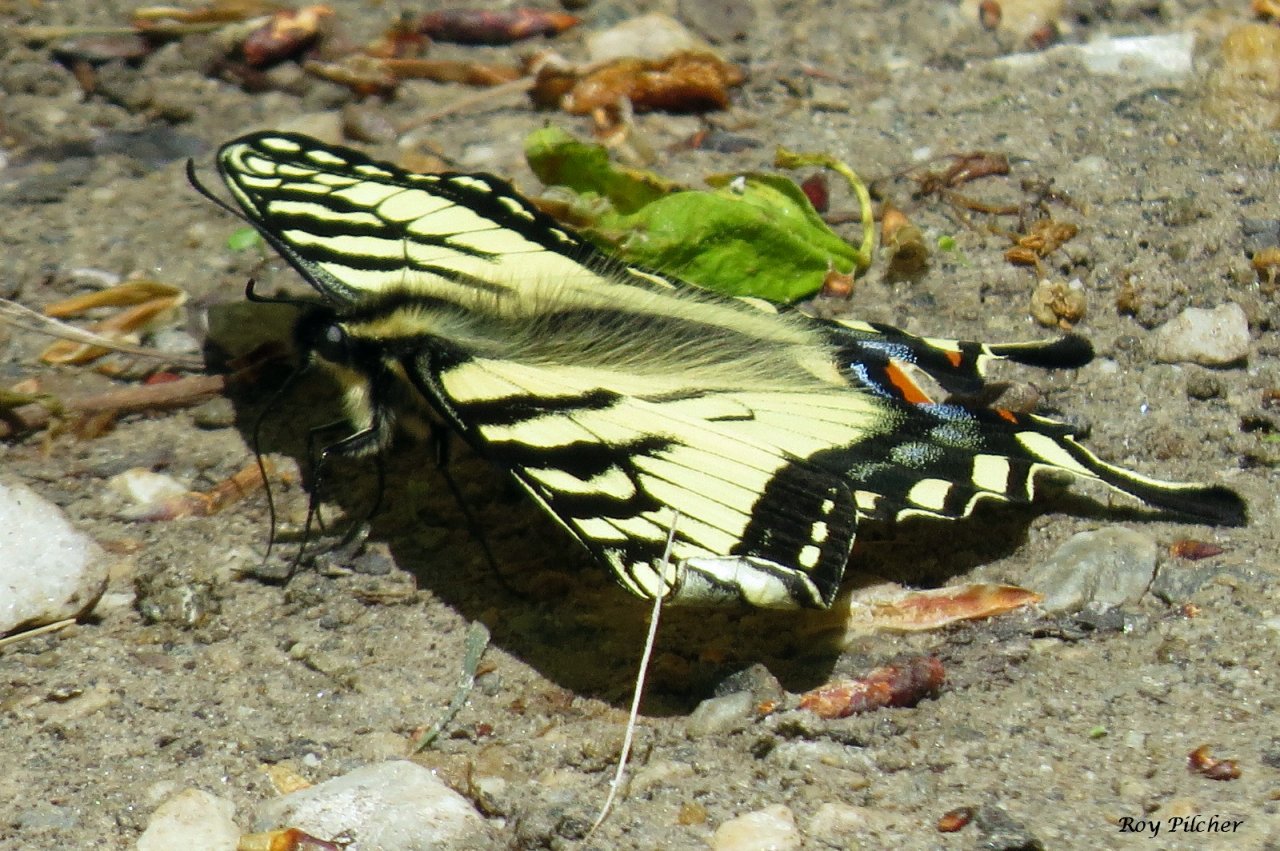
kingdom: Animalia
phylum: Arthropoda
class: Insecta
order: Lepidoptera
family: Papilionidae
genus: Pterourus
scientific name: Pterourus
